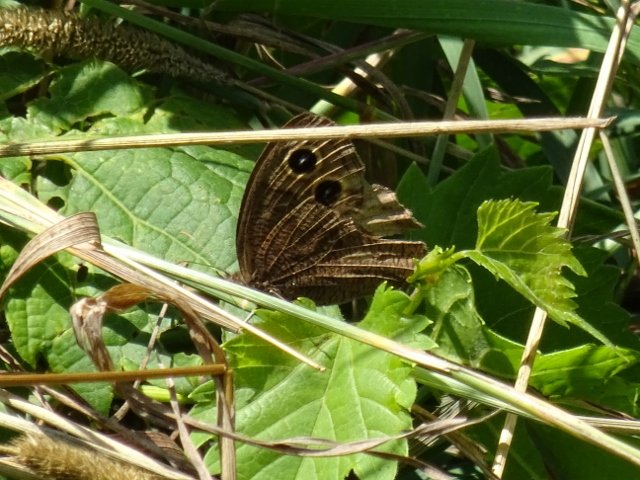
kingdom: Animalia
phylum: Arthropoda
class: Insecta
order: Lepidoptera
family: Nymphalidae
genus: Cercyonis
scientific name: Cercyonis pegala
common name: Common Wood-Nymph
